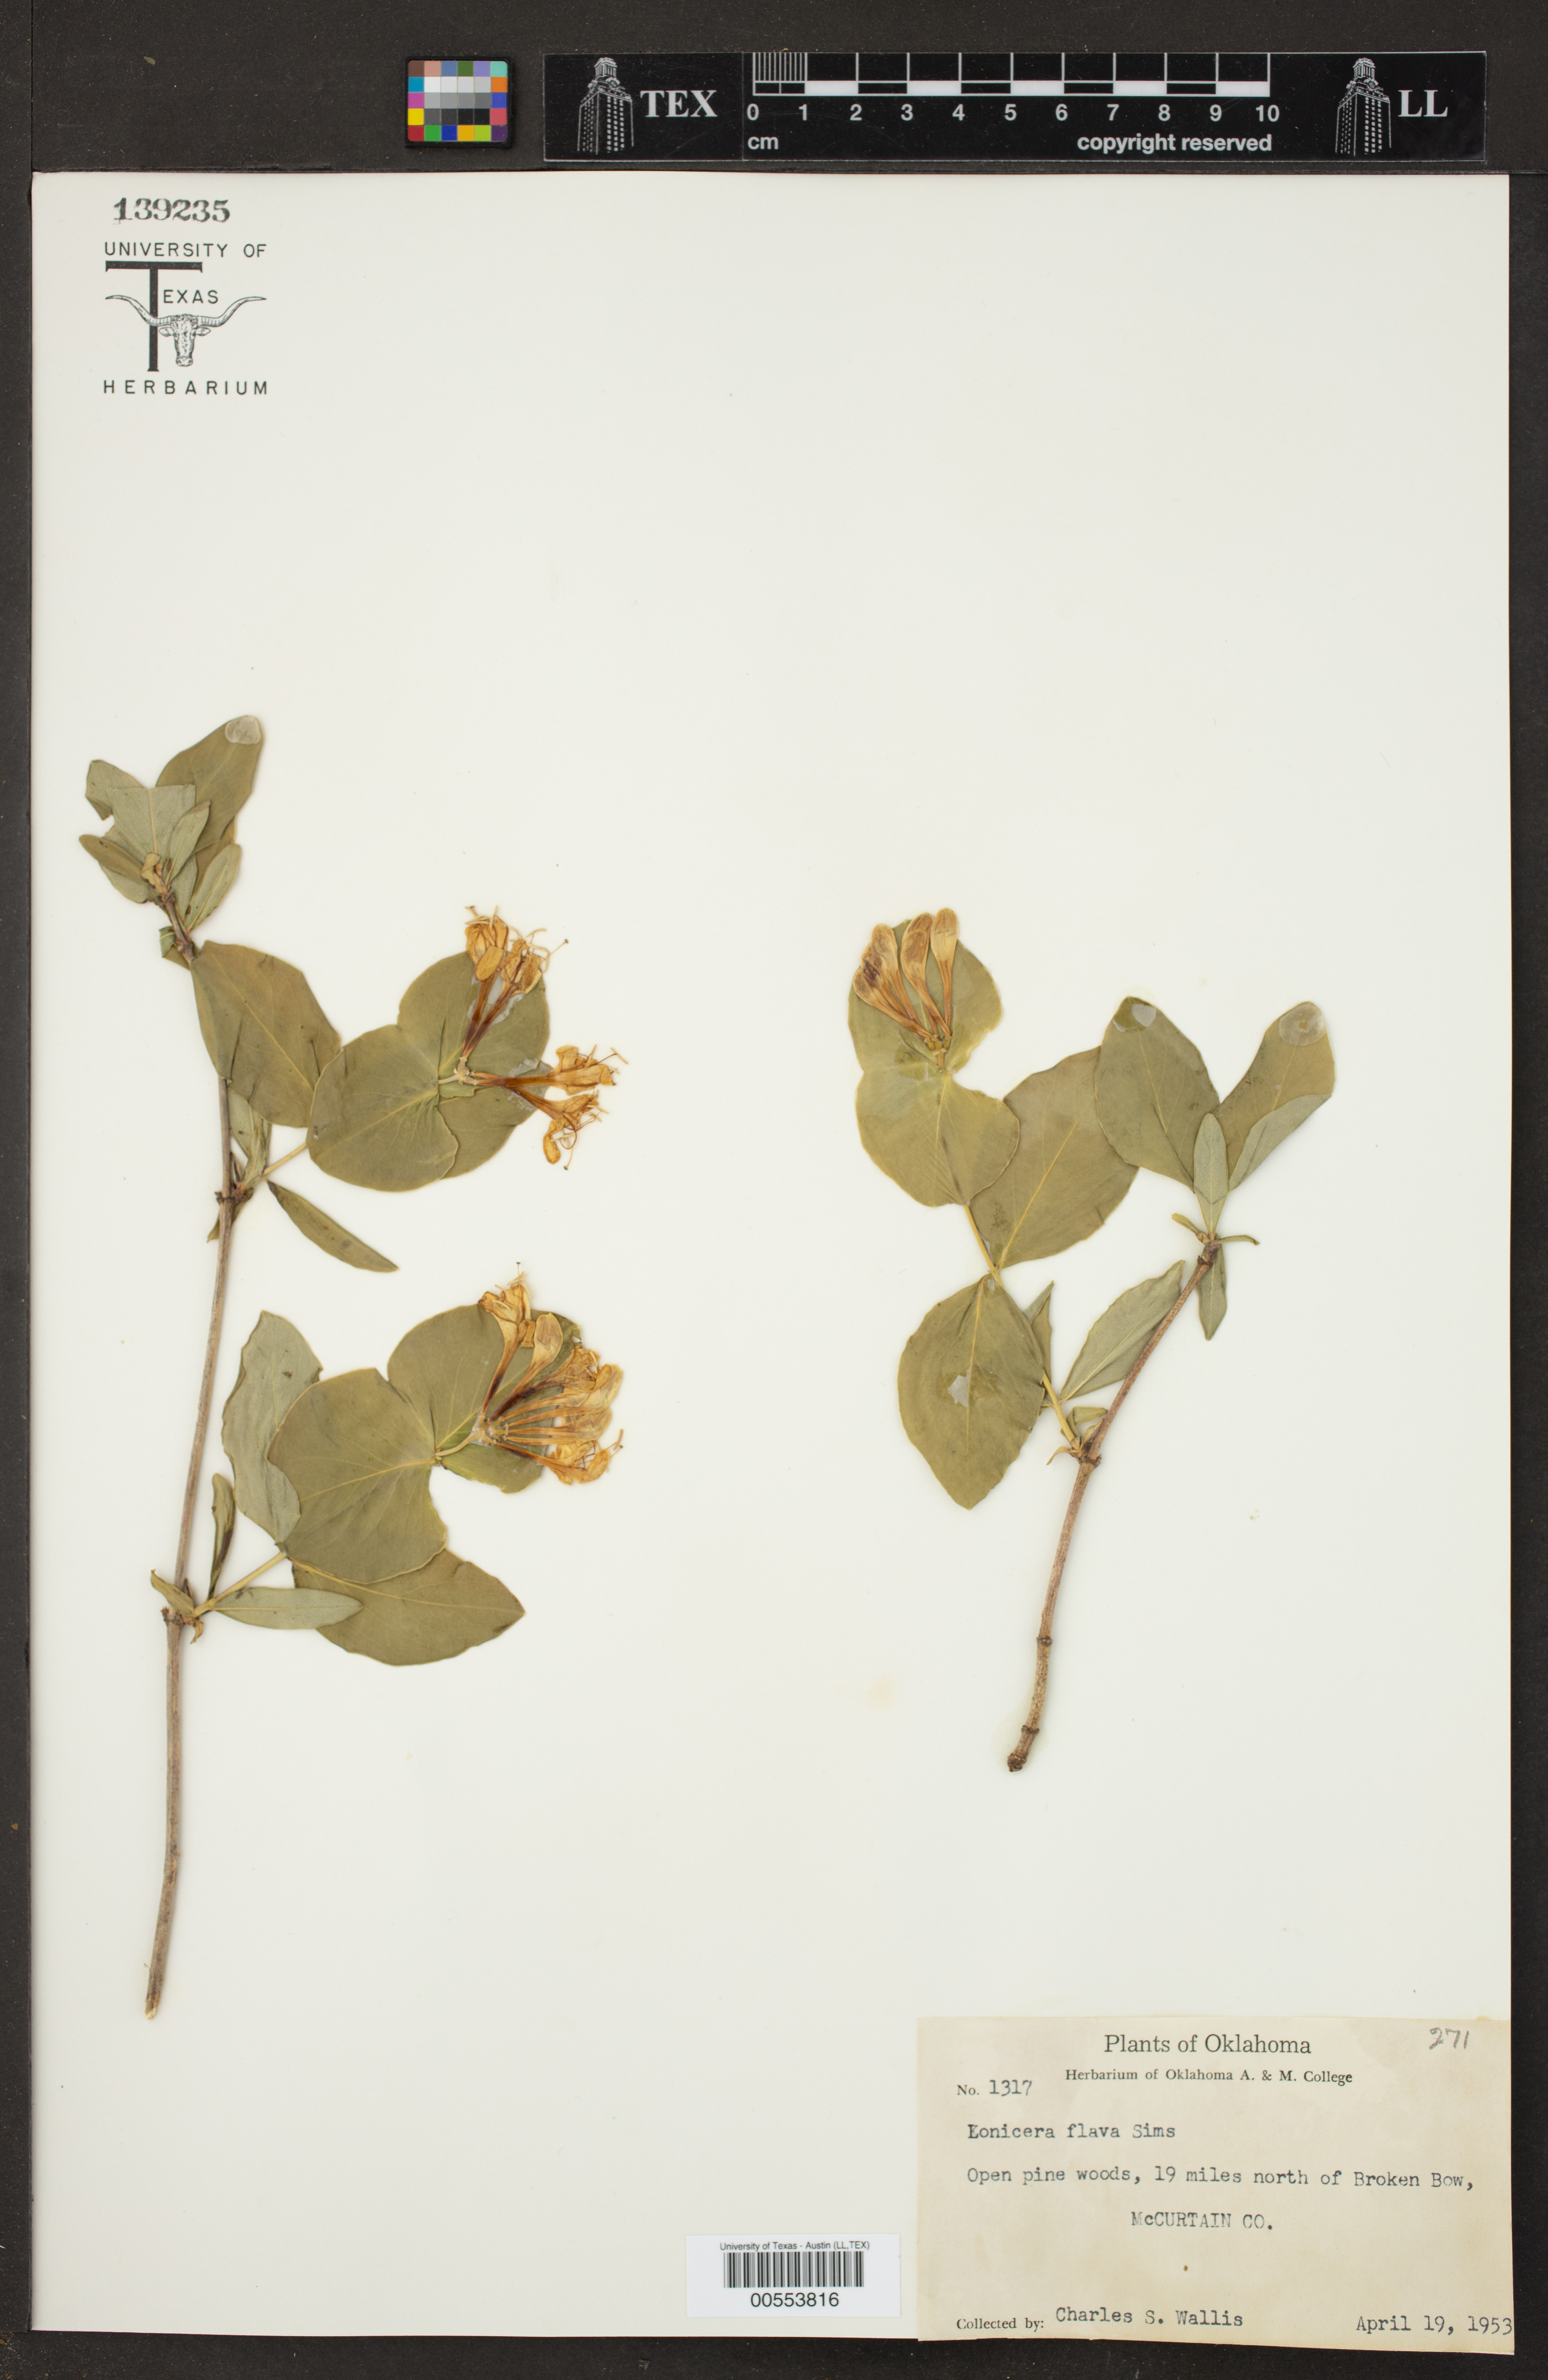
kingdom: Plantae
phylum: Tracheophyta
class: Magnoliopsida
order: Dipsacales
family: Caprifoliaceae
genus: Lonicera
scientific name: Lonicera flava
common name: Yellow honeysuckle
